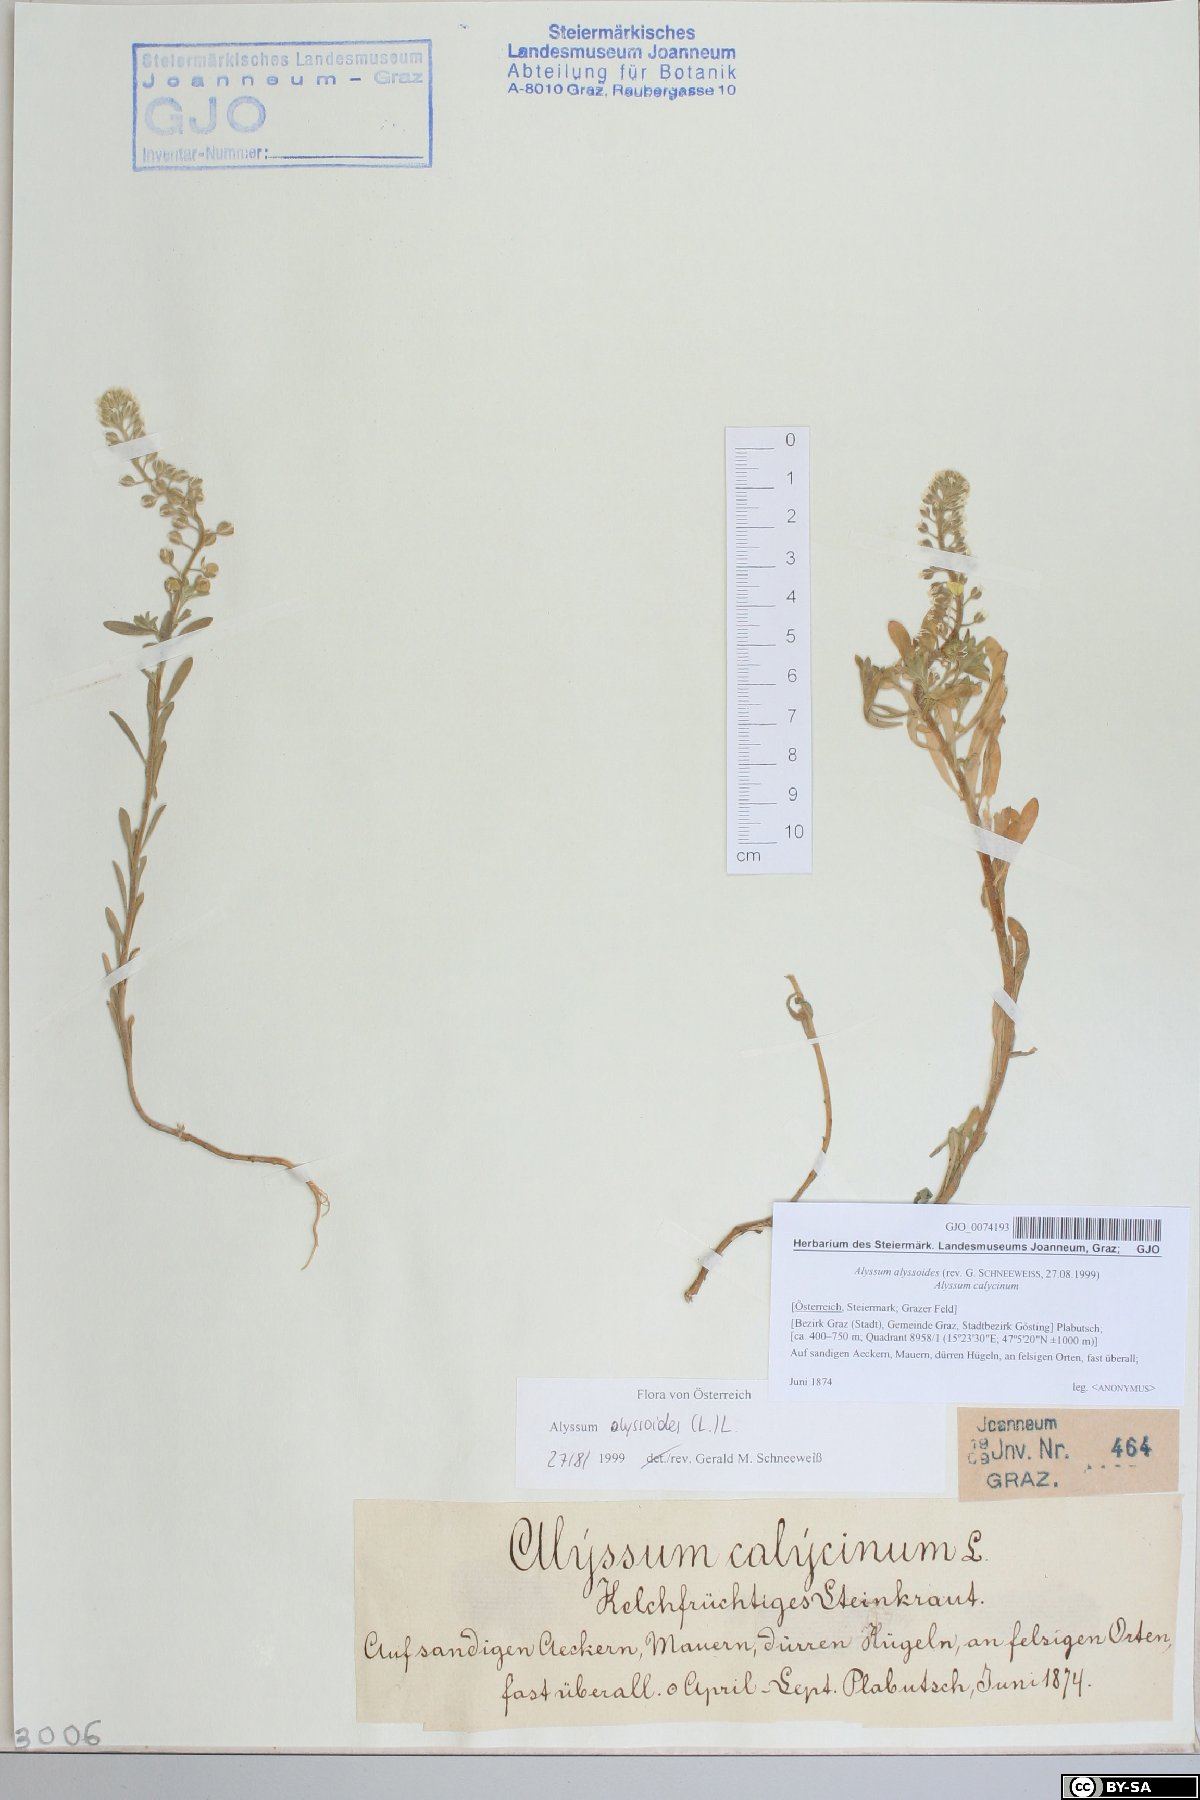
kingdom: Plantae
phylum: Tracheophyta
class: Magnoliopsida
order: Brassicales
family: Brassicaceae
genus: Alyssum
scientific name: Alyssum alyssoides
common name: Small alison
